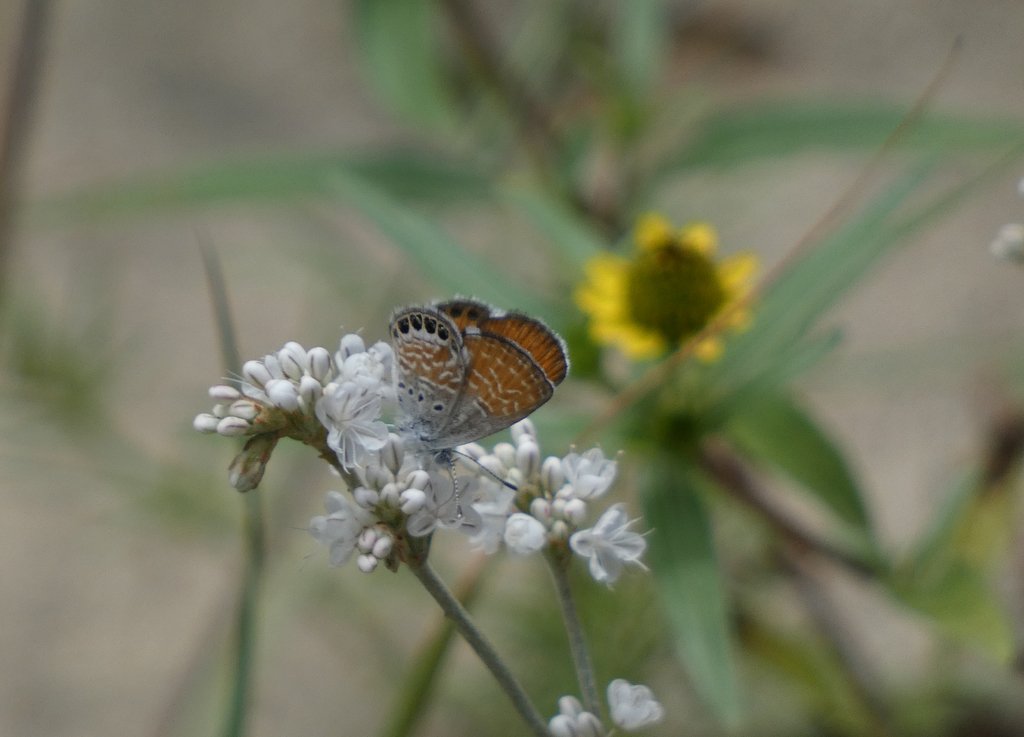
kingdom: Animalia
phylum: Arthropoda
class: Insecta
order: Lepidoptera
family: Lycaenidae
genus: Brephidium
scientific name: Brephidium exilis
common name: Western Pygmy-Blue
